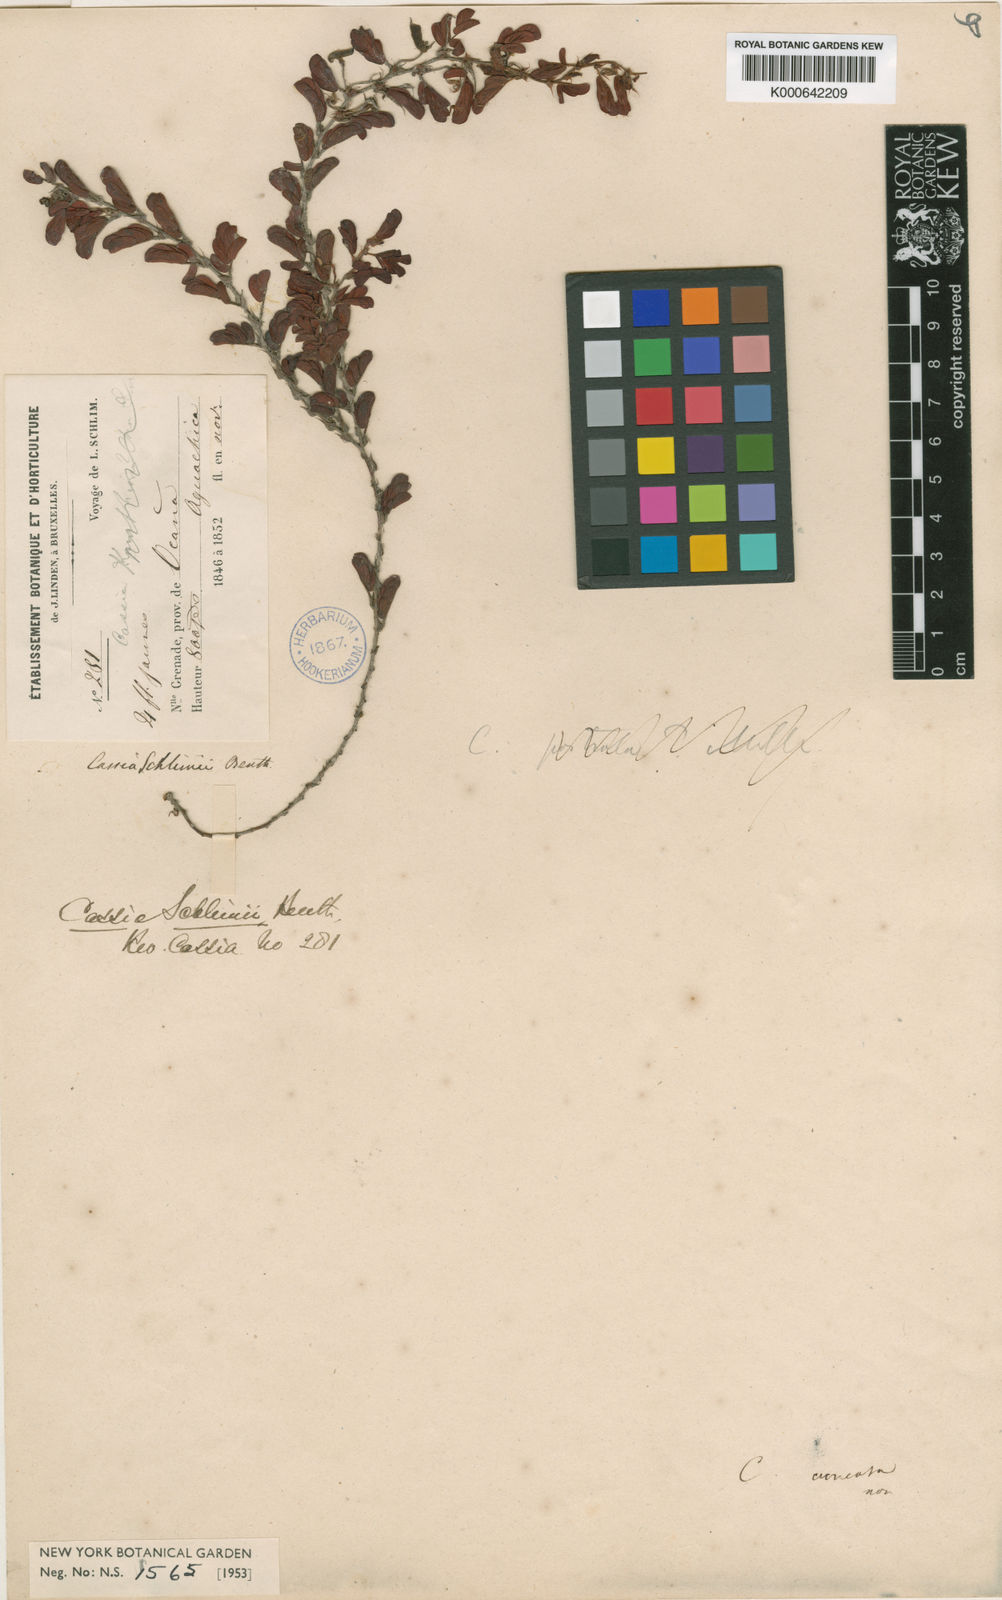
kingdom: Plantae
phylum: Tracheophyta
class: Magnoliopsida
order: Fabales
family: Fabaceae
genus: Chamaecrista
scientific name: Chamaecrista cordistipula
